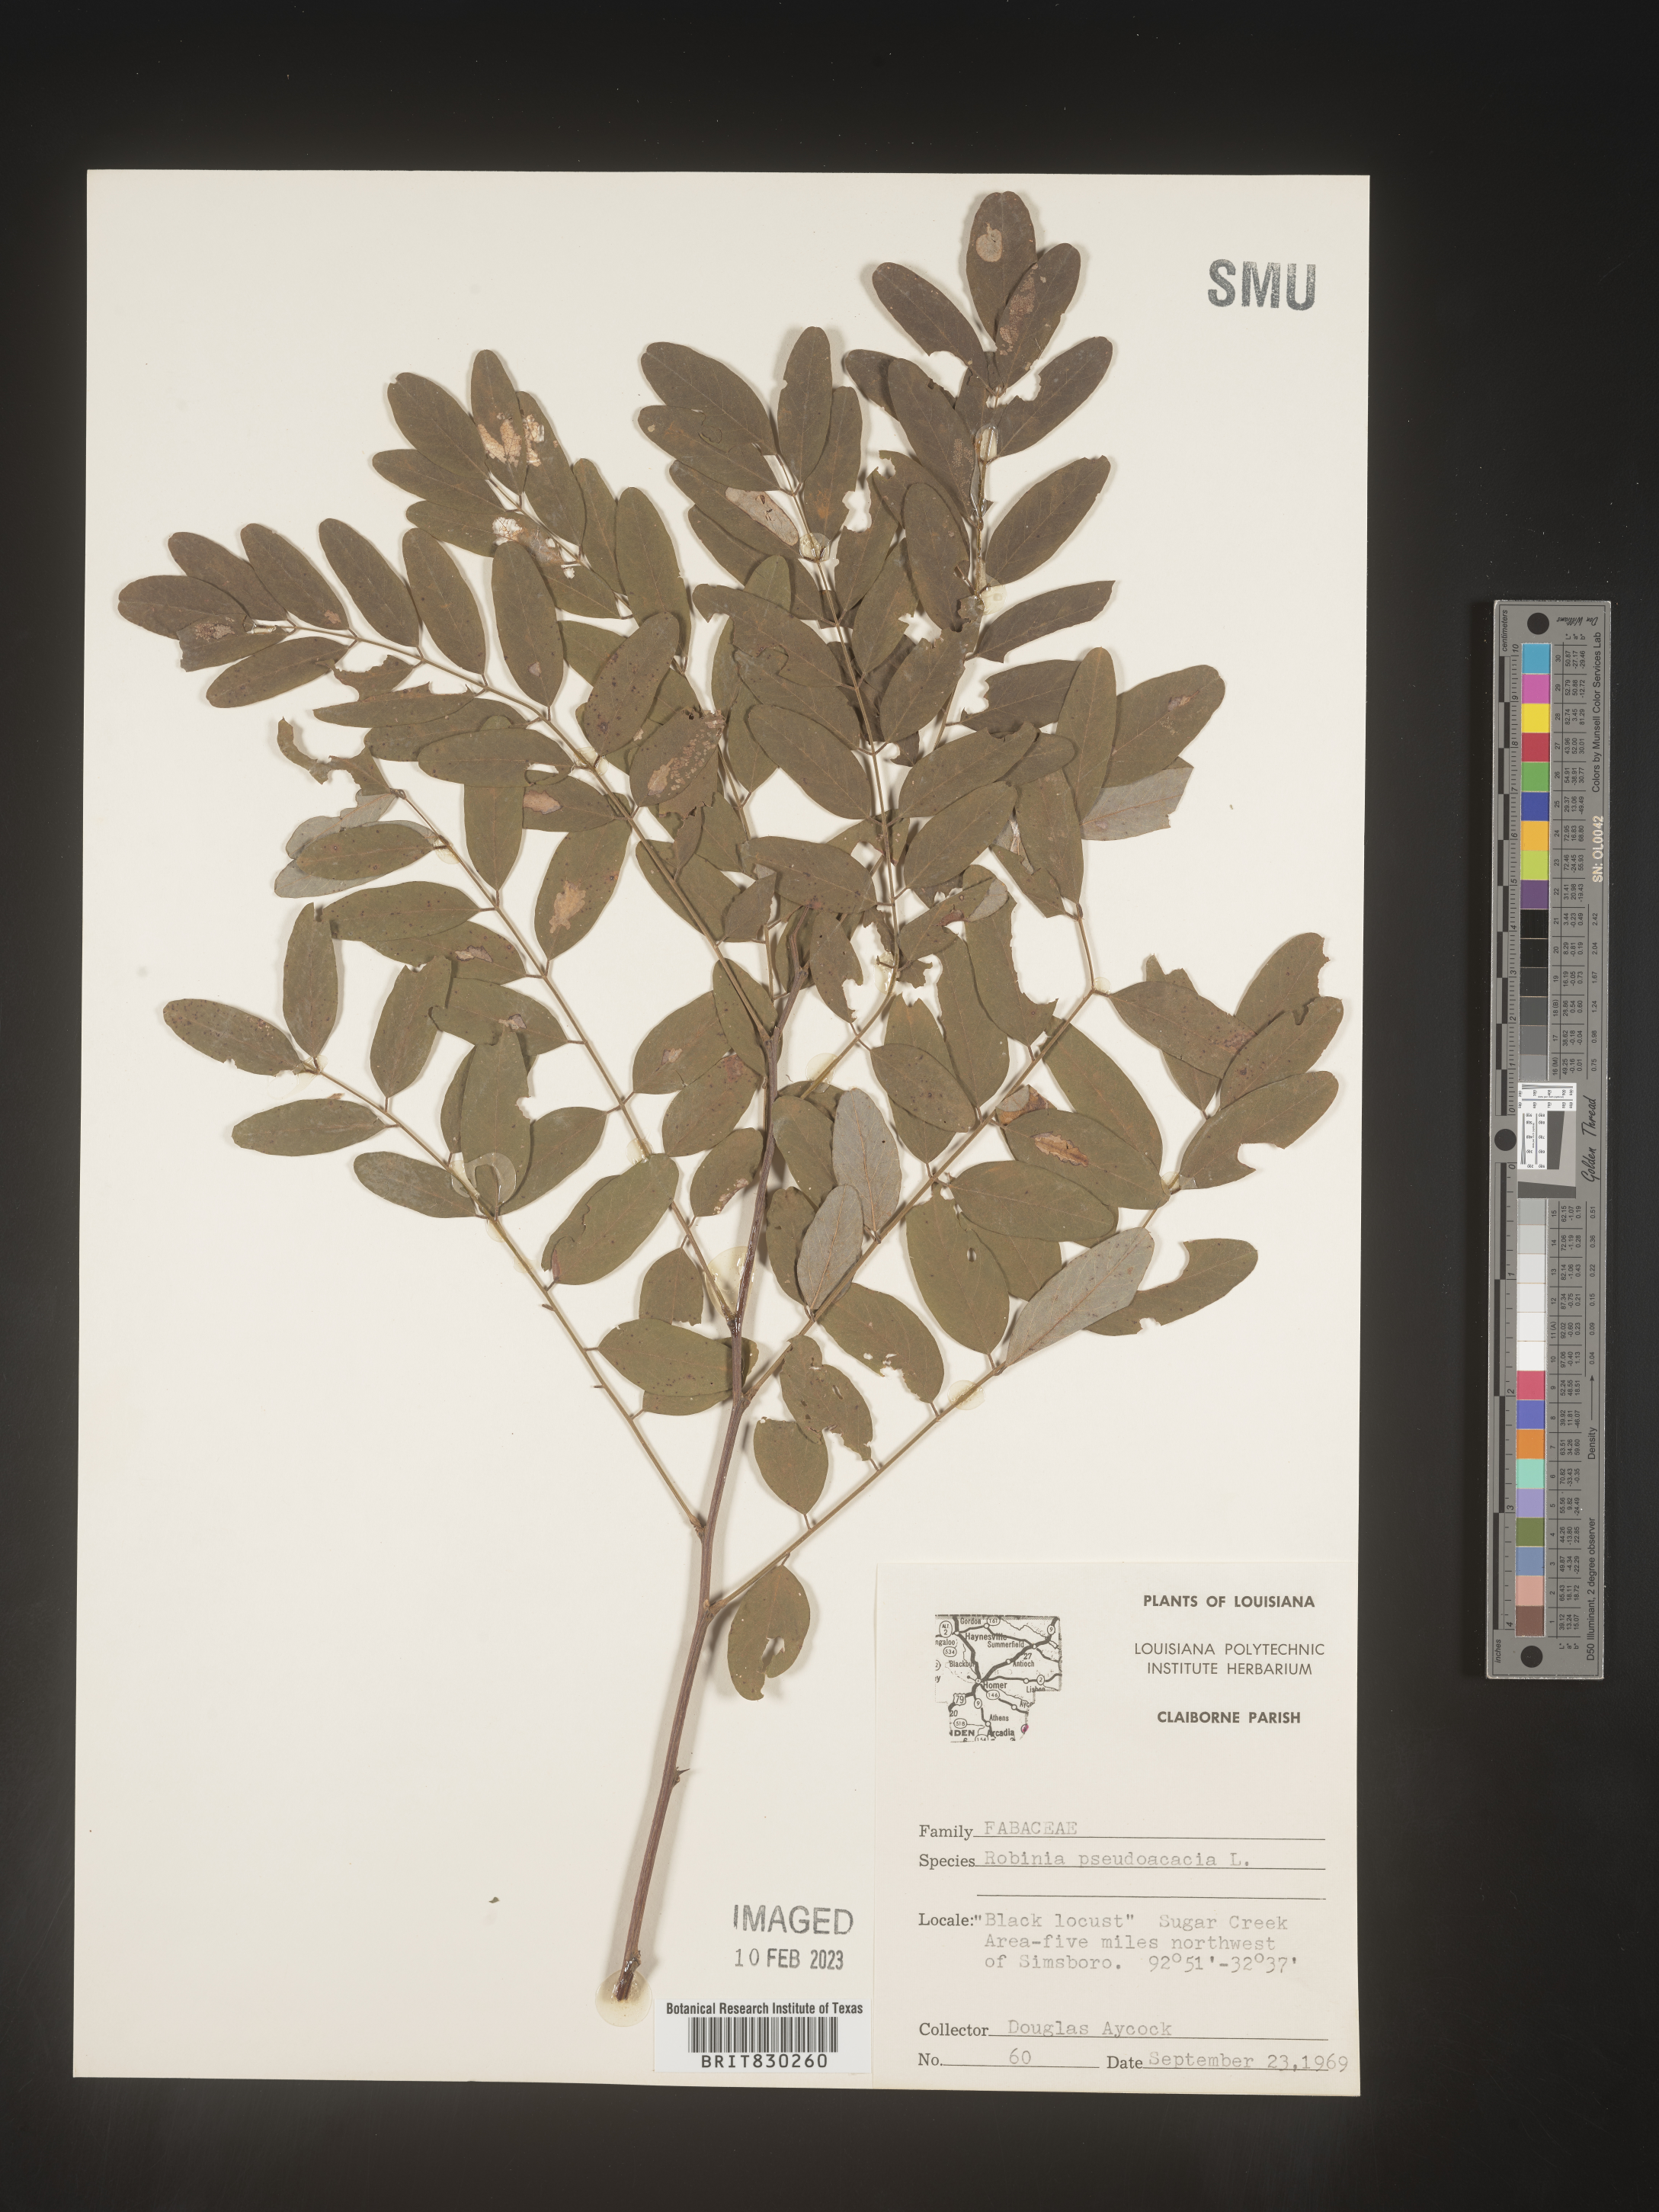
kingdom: Plantae
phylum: Tracheophyta
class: Magnoliopsida
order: Fabales
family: Fabaceae
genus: Robinia
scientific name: Robinia pseudoacacia
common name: Black locust
